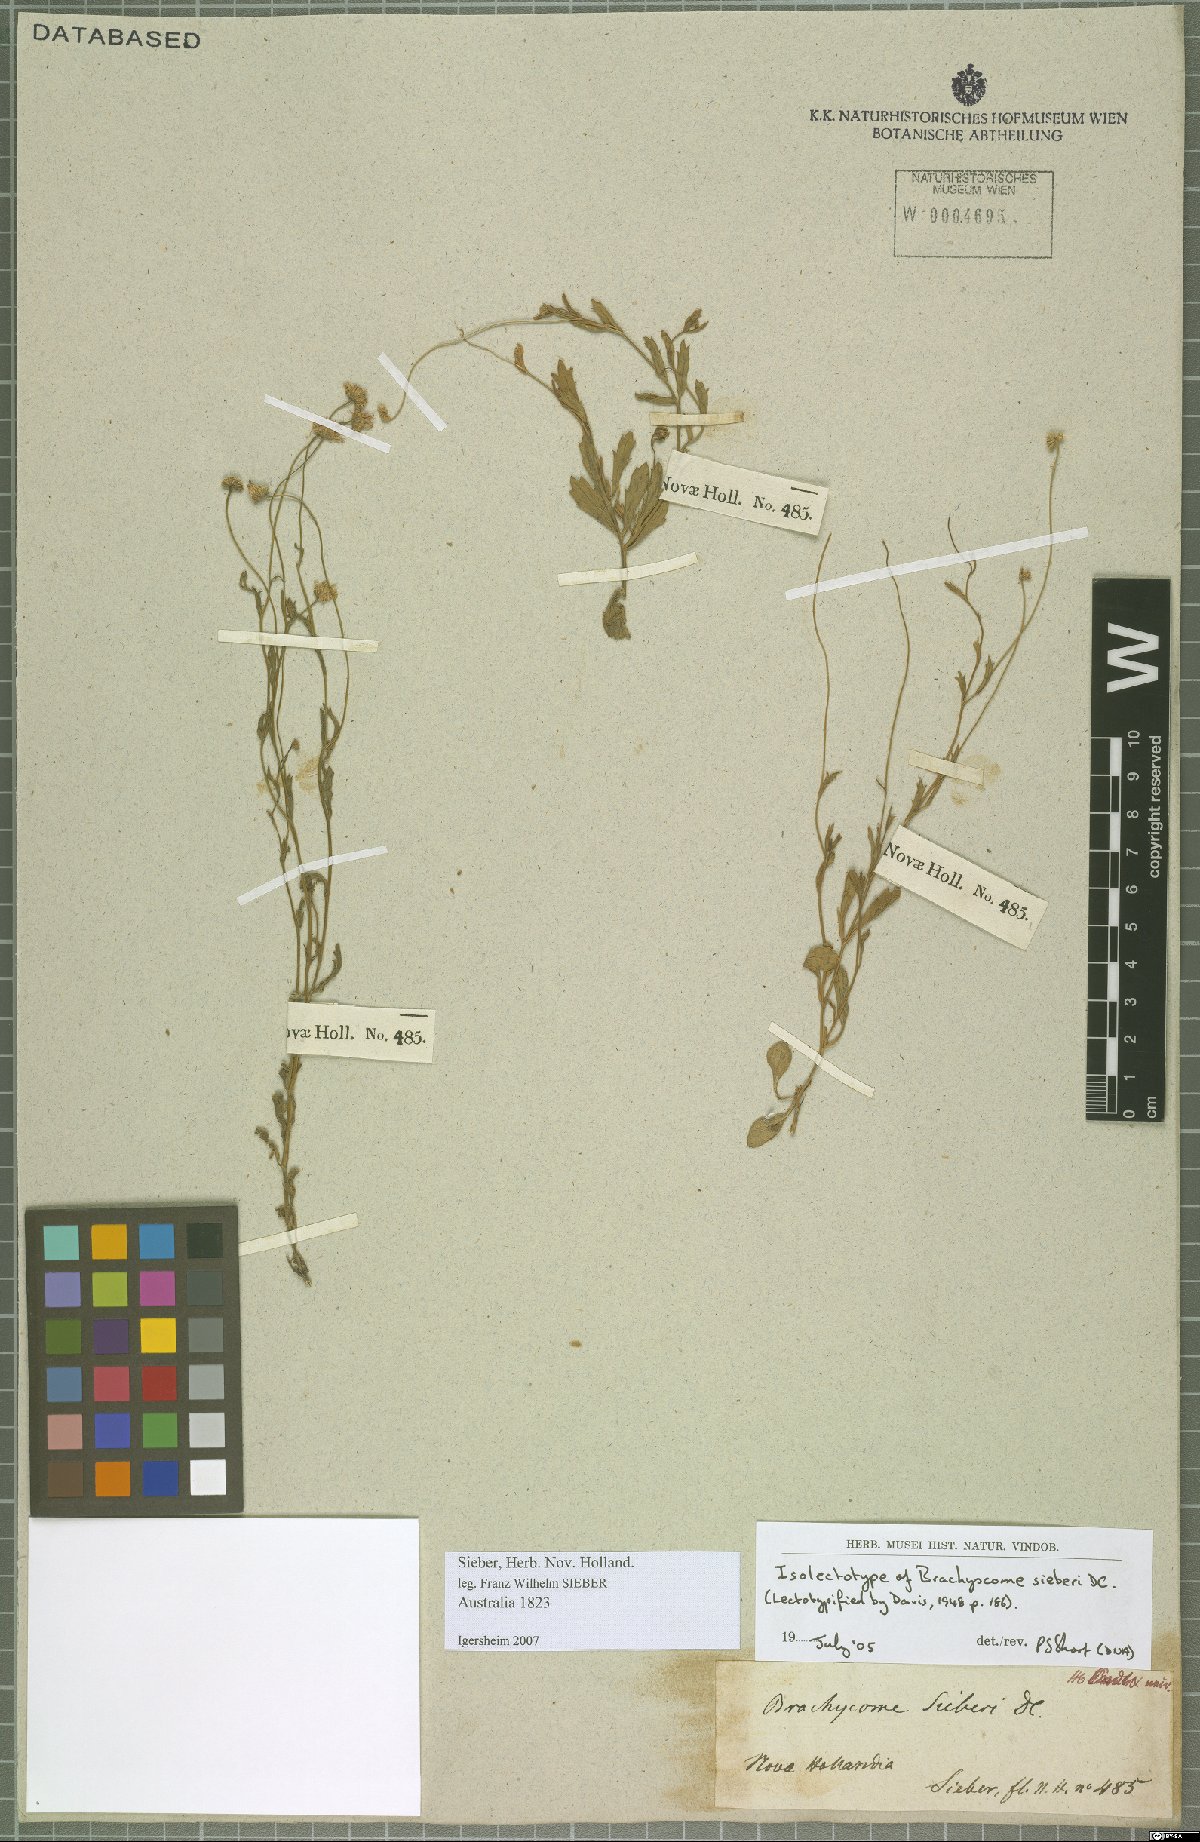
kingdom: Plantae
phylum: Tracheophyta
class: Magnoliopsida
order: Asterales
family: Asteraceae
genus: Brachyscome
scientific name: Brachyscome sieberi
